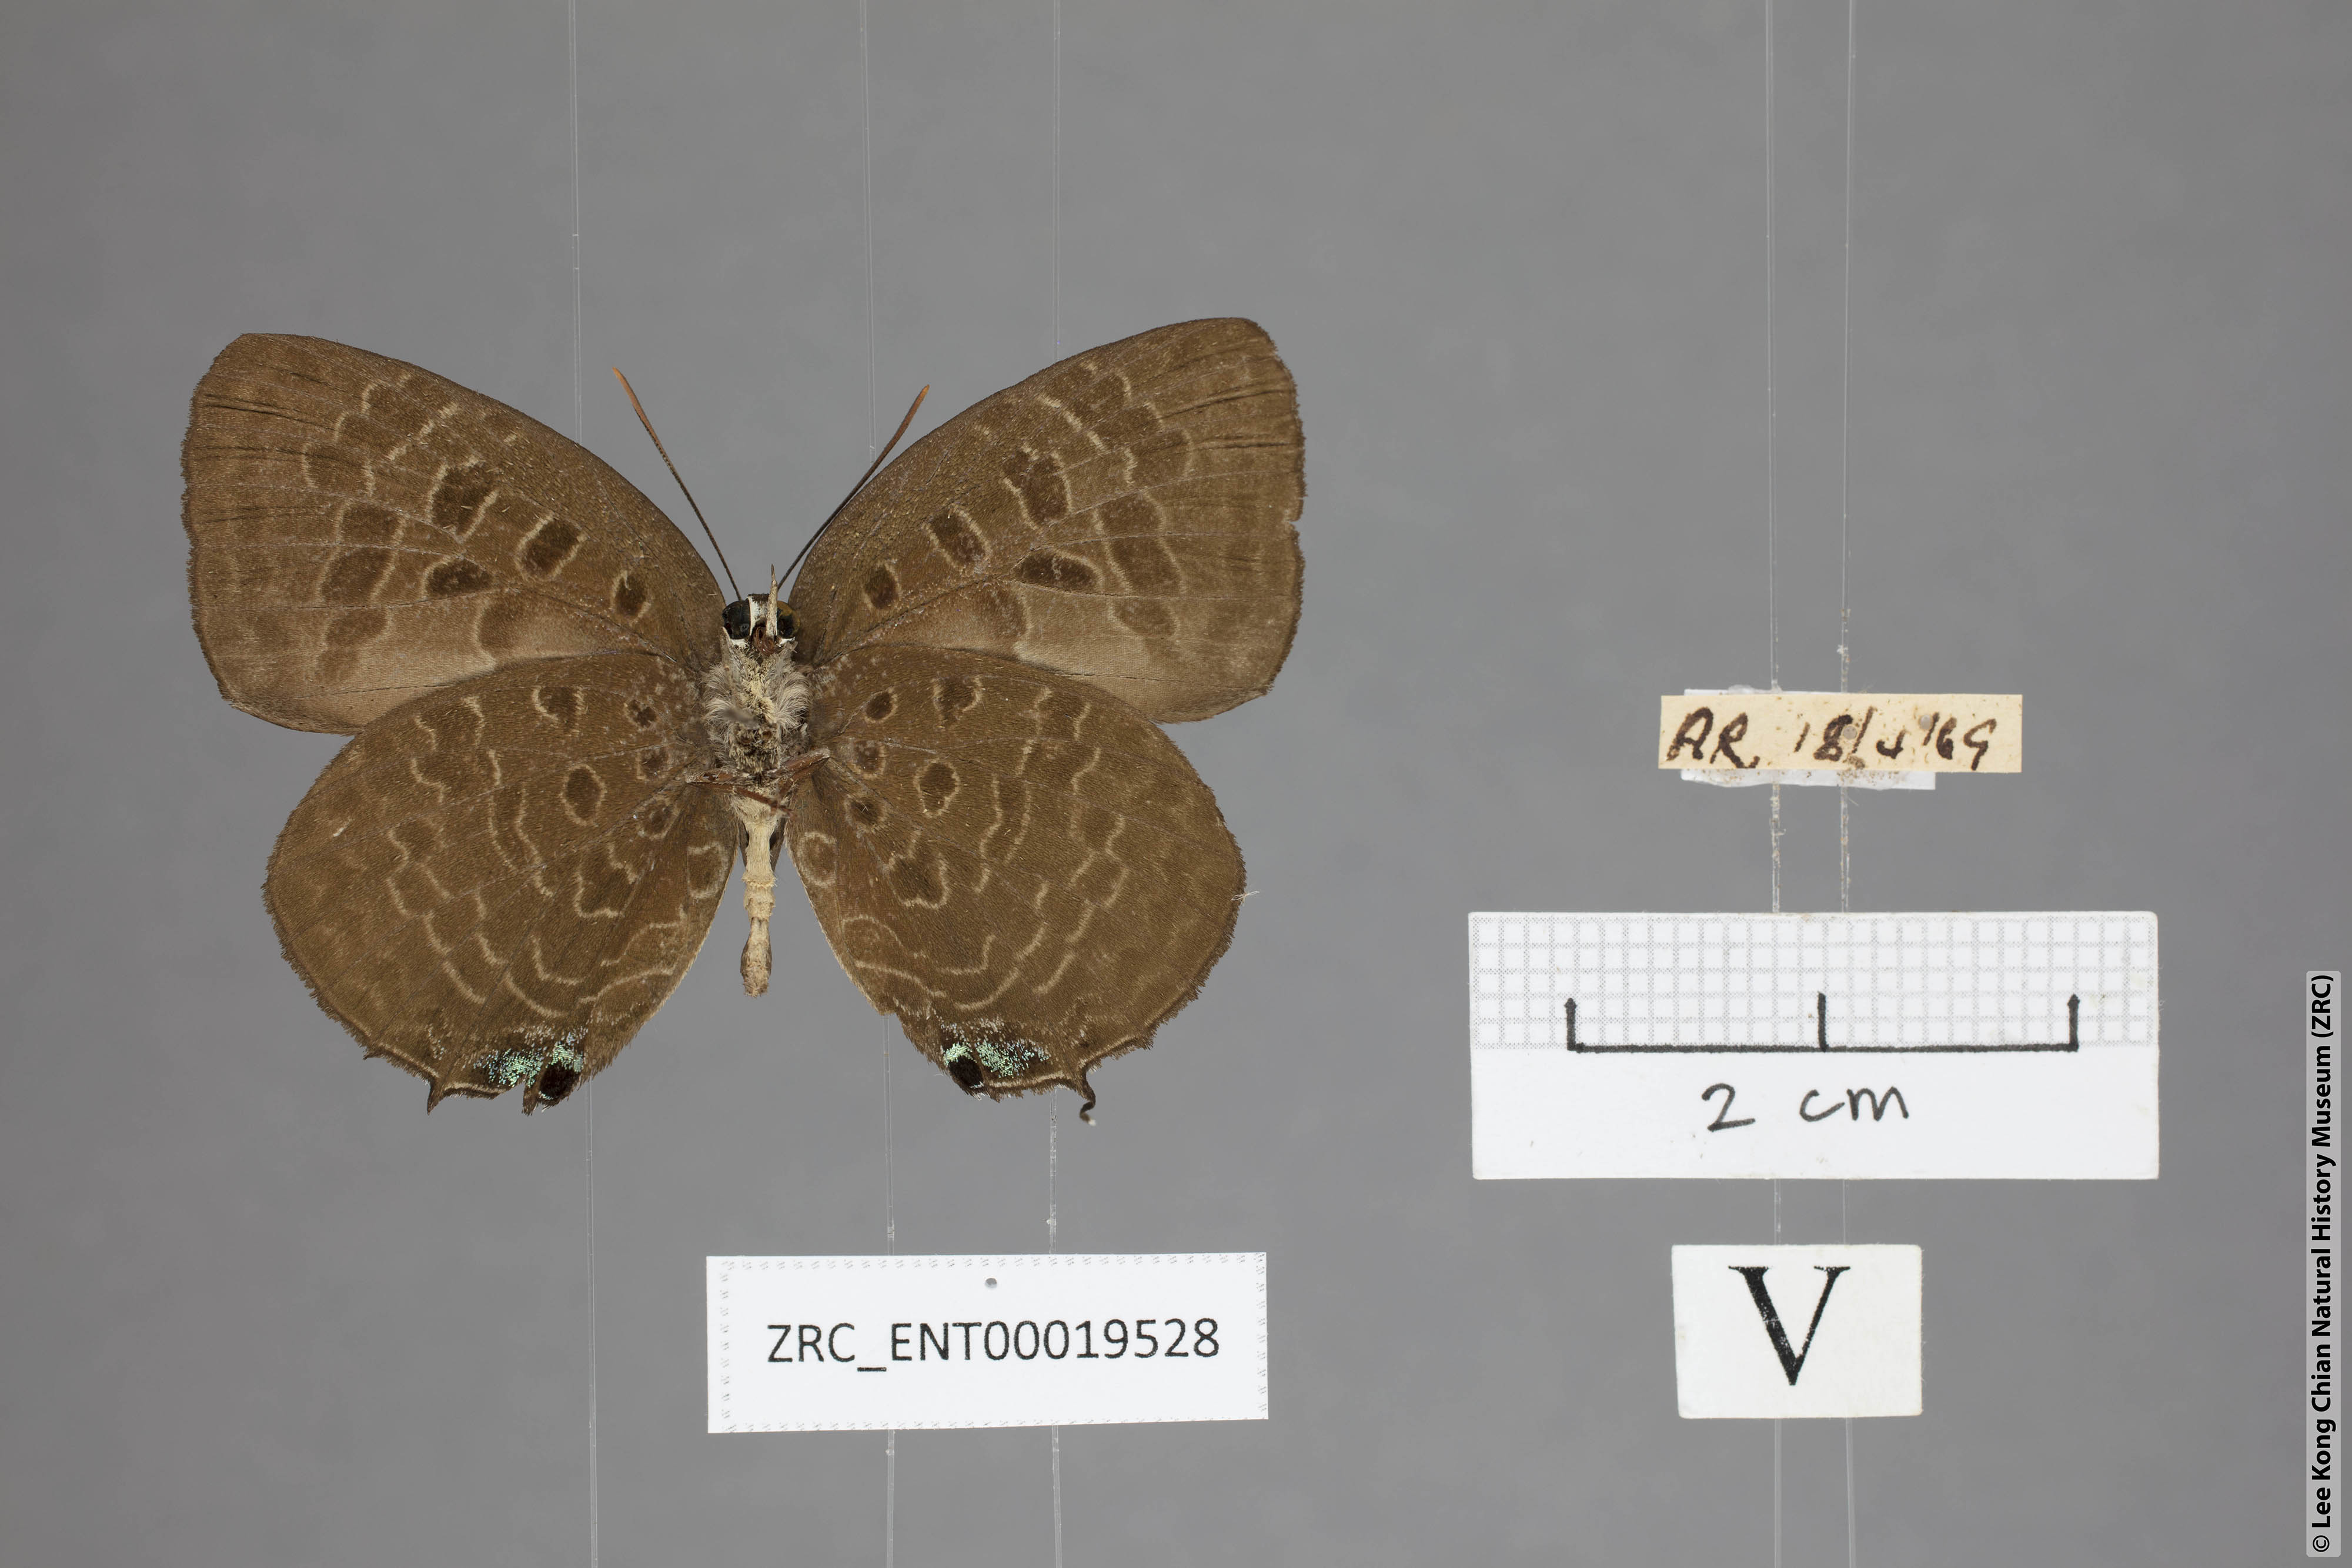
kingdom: Animalia
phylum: Arthropoda
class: Insecta
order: Lepidoptera
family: Lycaenidae
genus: Arhopala
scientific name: Arhopala horsfieldi
